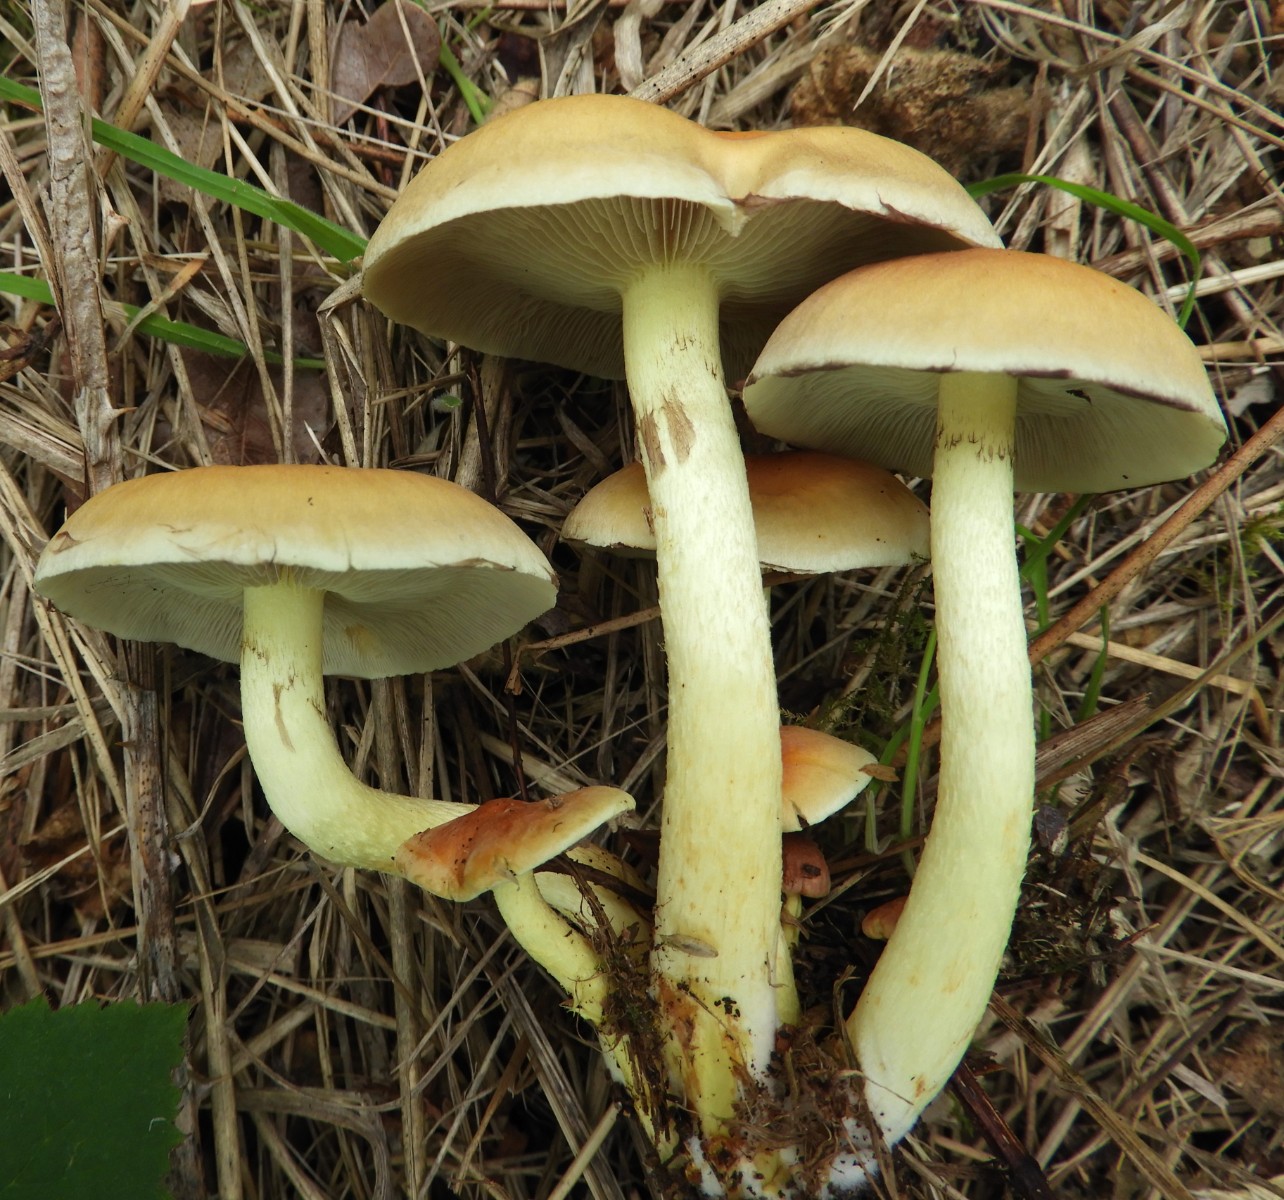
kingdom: Fungi
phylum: Basidiomycota
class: Agaricomycetes
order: Agaricales
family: Strophariaceae
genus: Hypholoma
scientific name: Hypholoma capnoides
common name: gran-svovlhat
